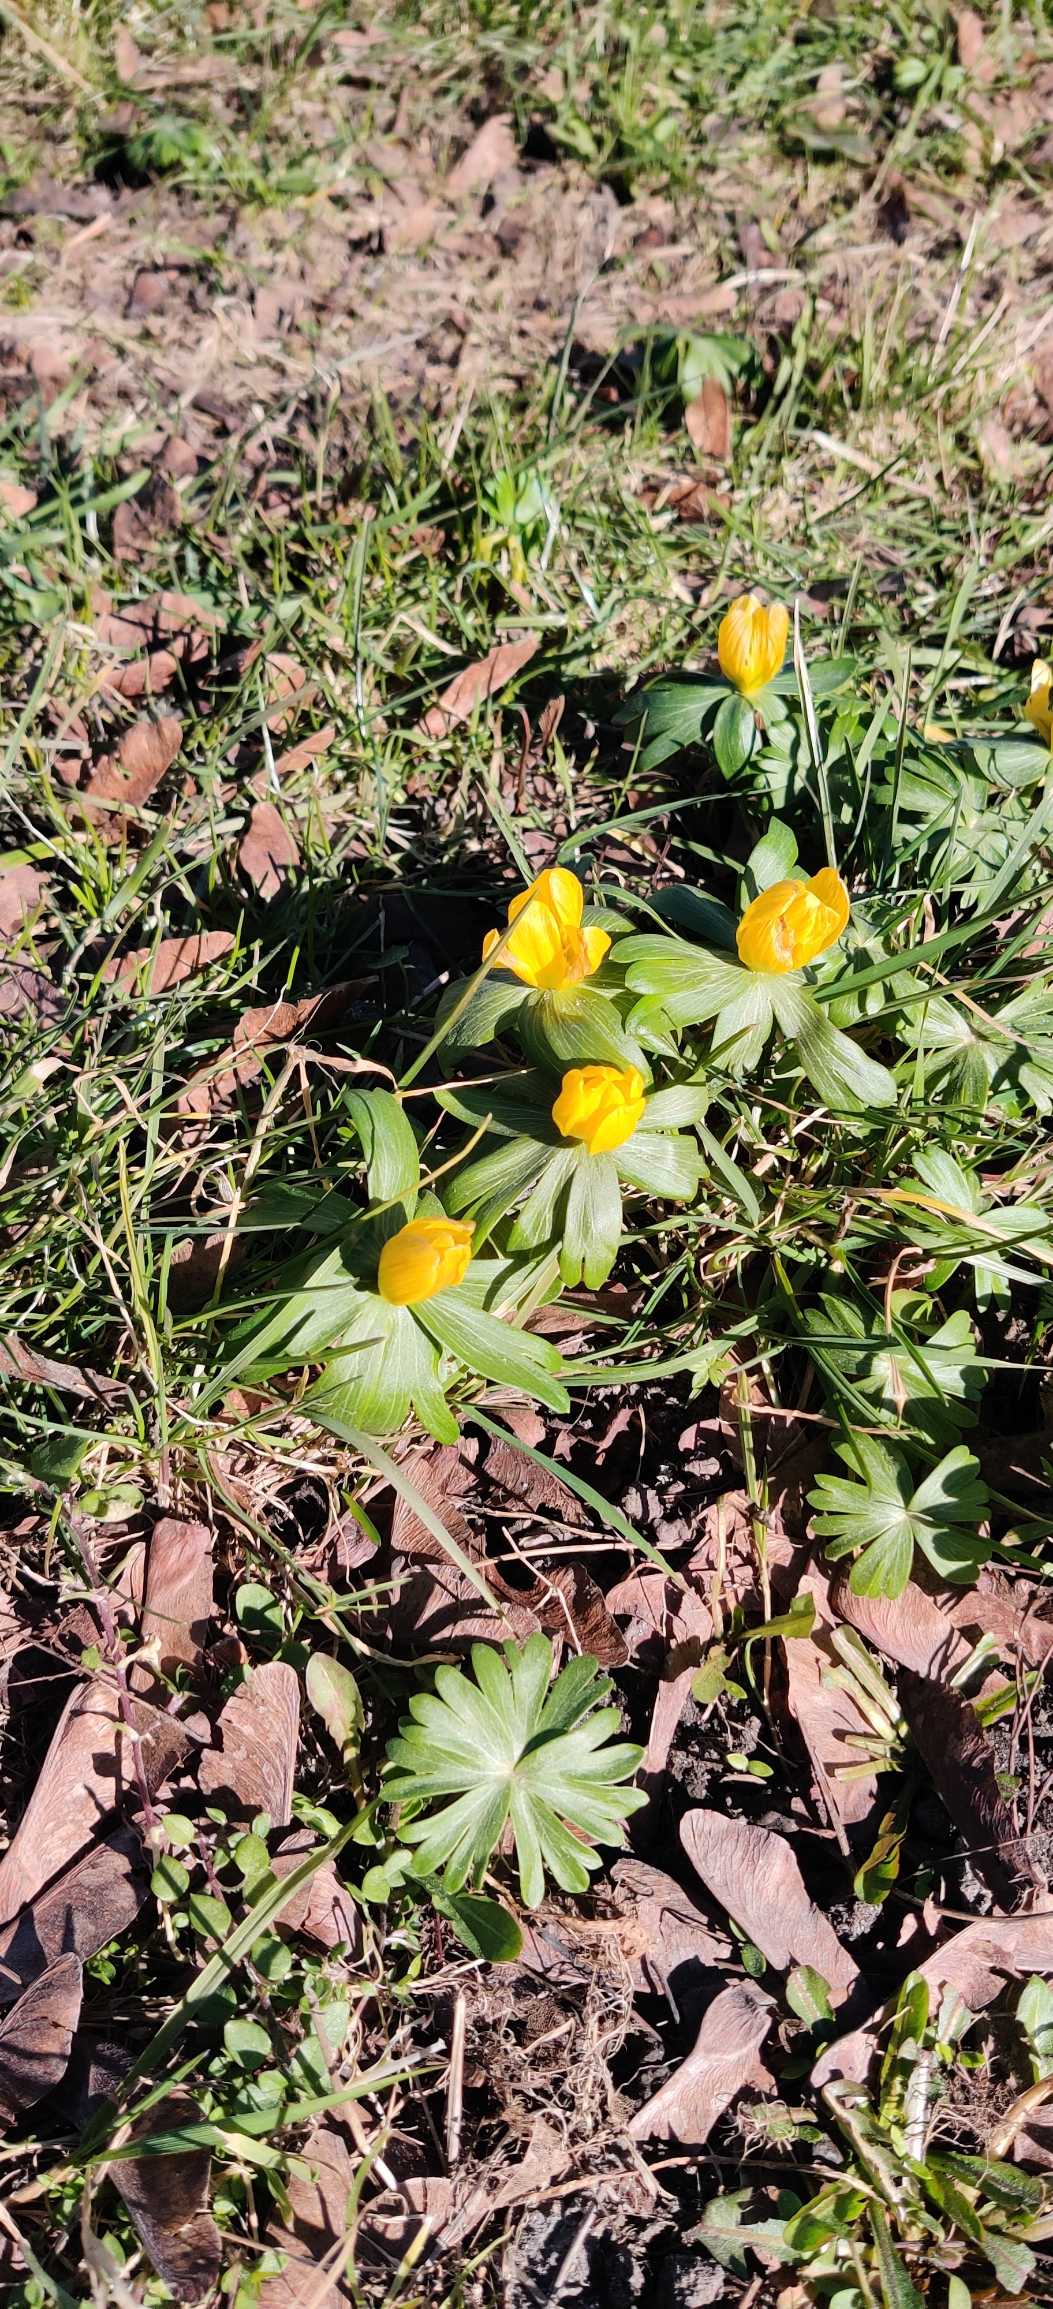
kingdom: Plantae
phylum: Tracheophyta
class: Magnoliopsida
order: Ranunculales
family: Ranunculaceae
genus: Eranthis
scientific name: Eranthis hyemalis
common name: Erantis
